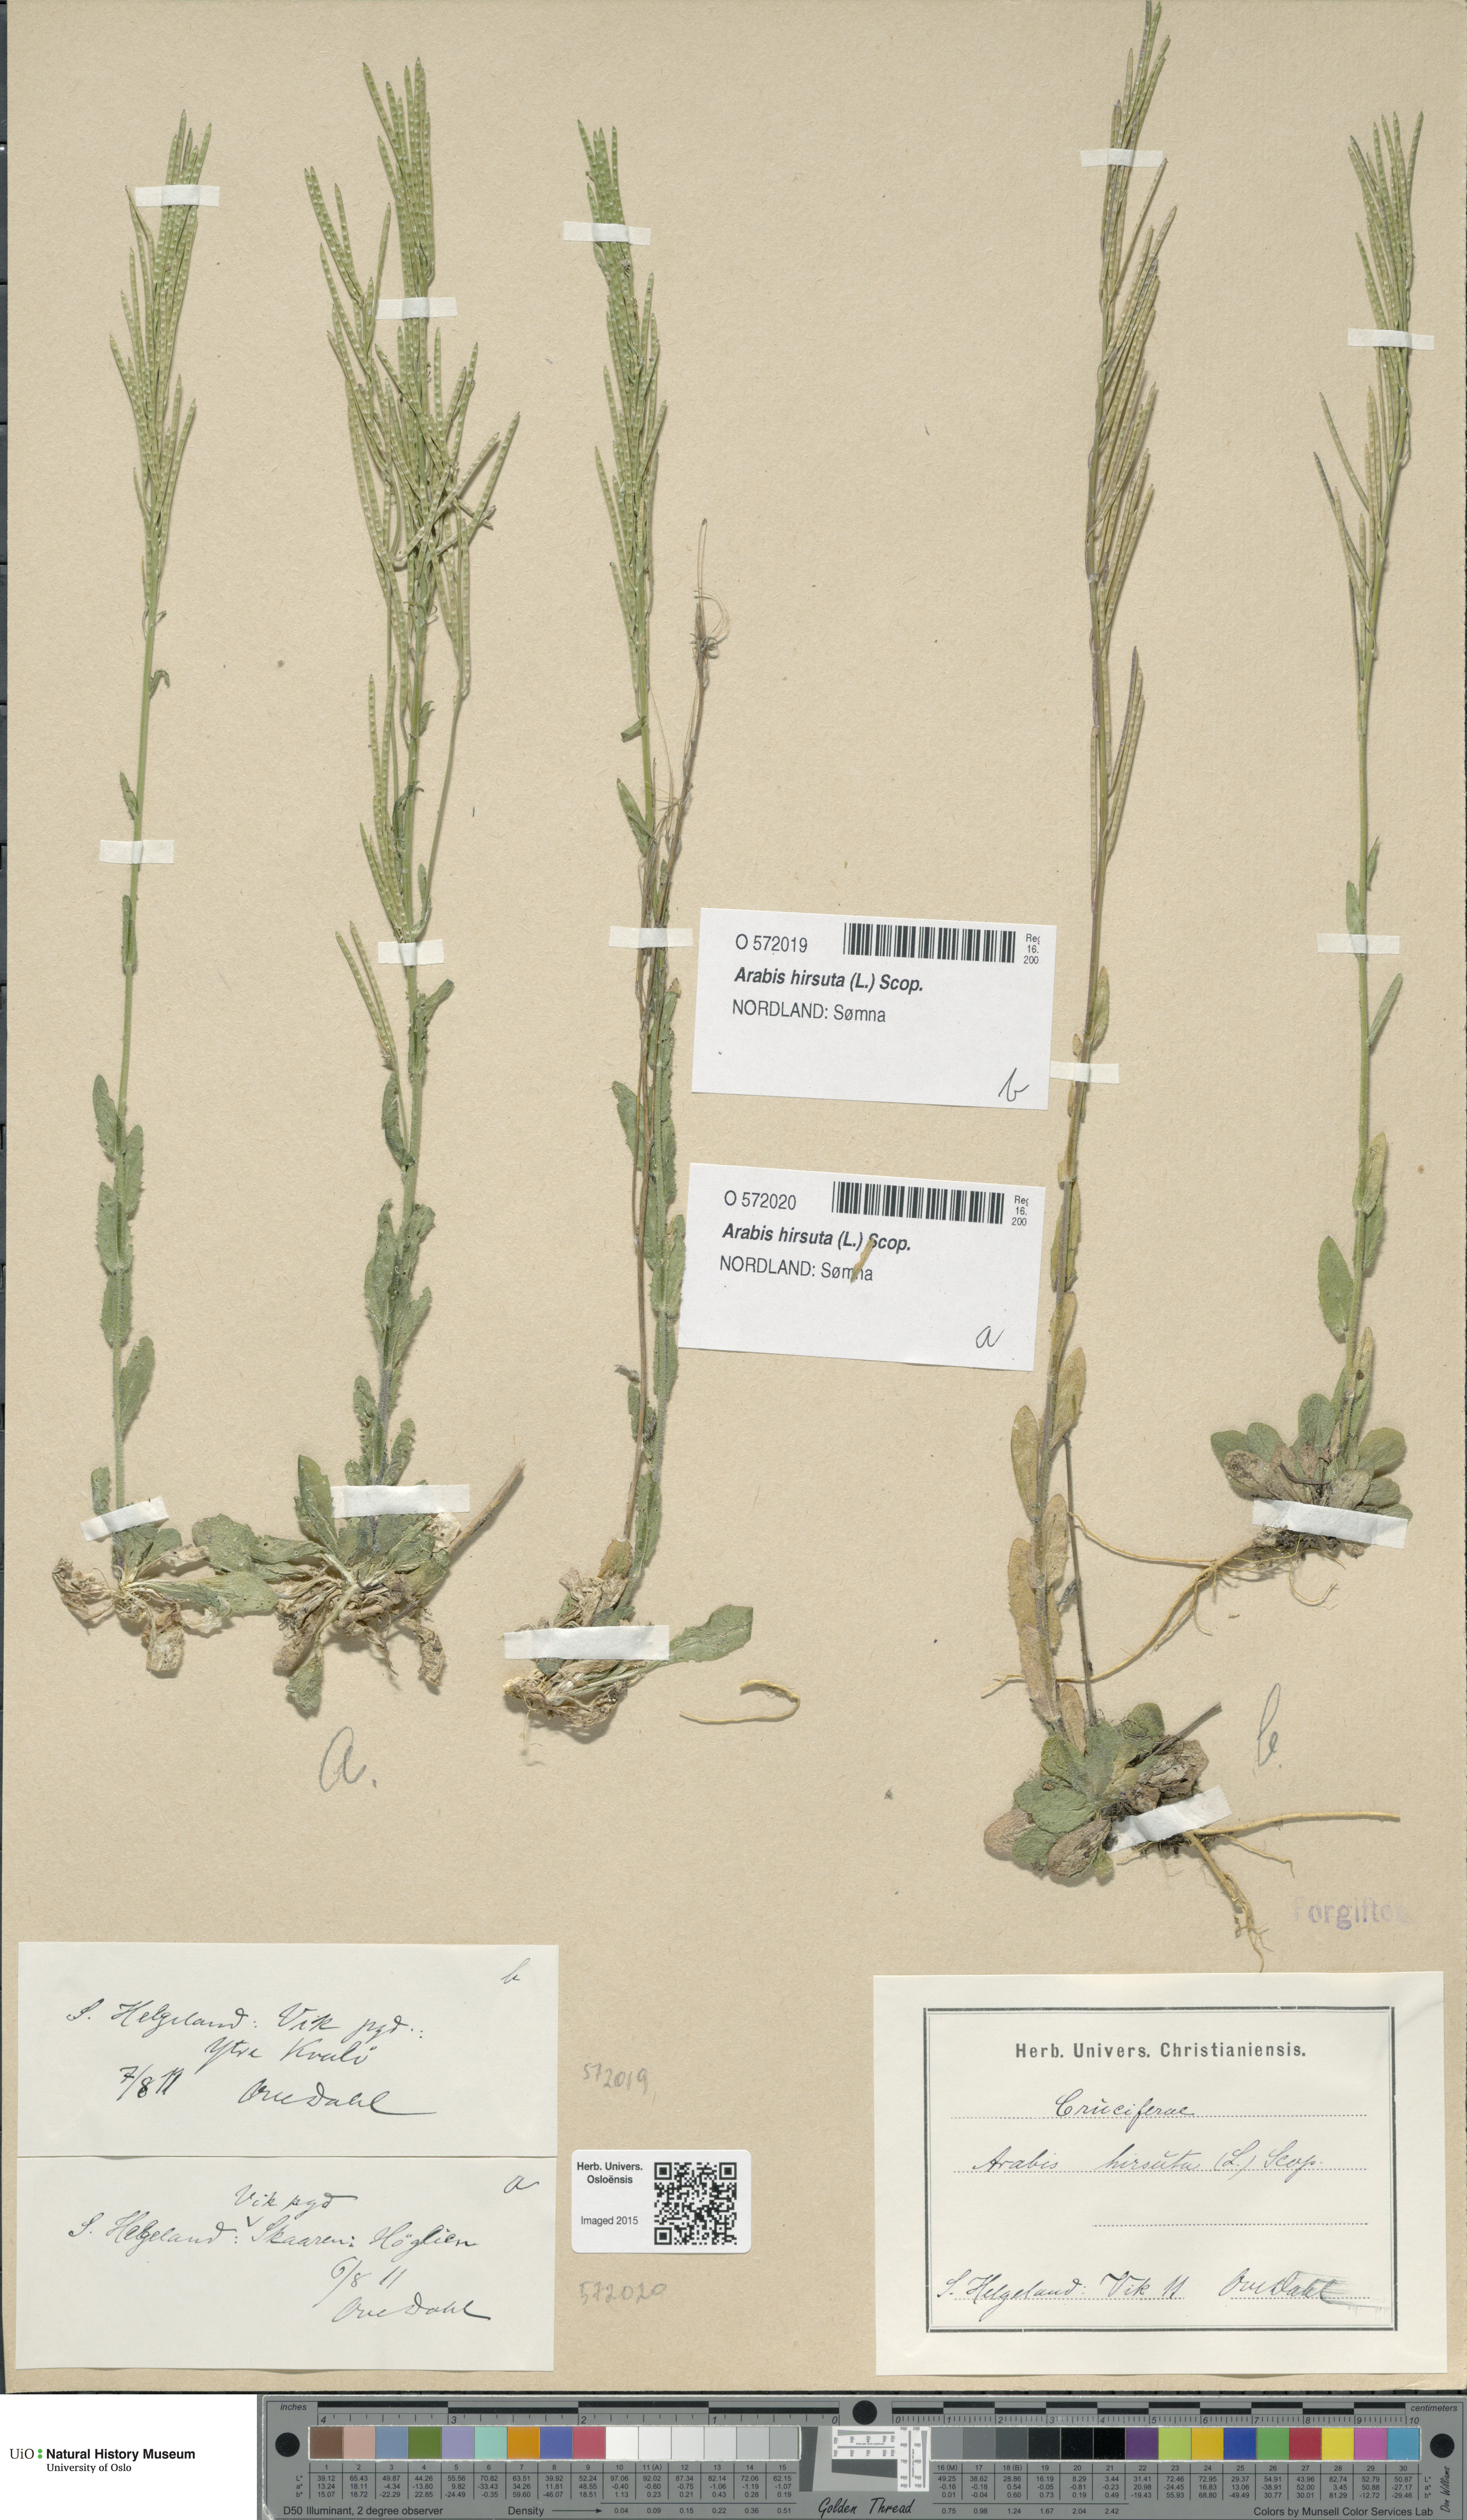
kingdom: Plantae
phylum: Tracheophyta
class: Magnoliopsida
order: Brassicales
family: Brassicaceae
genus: Arabis
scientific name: Arabis hirsuta
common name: Hairy rock-cress
